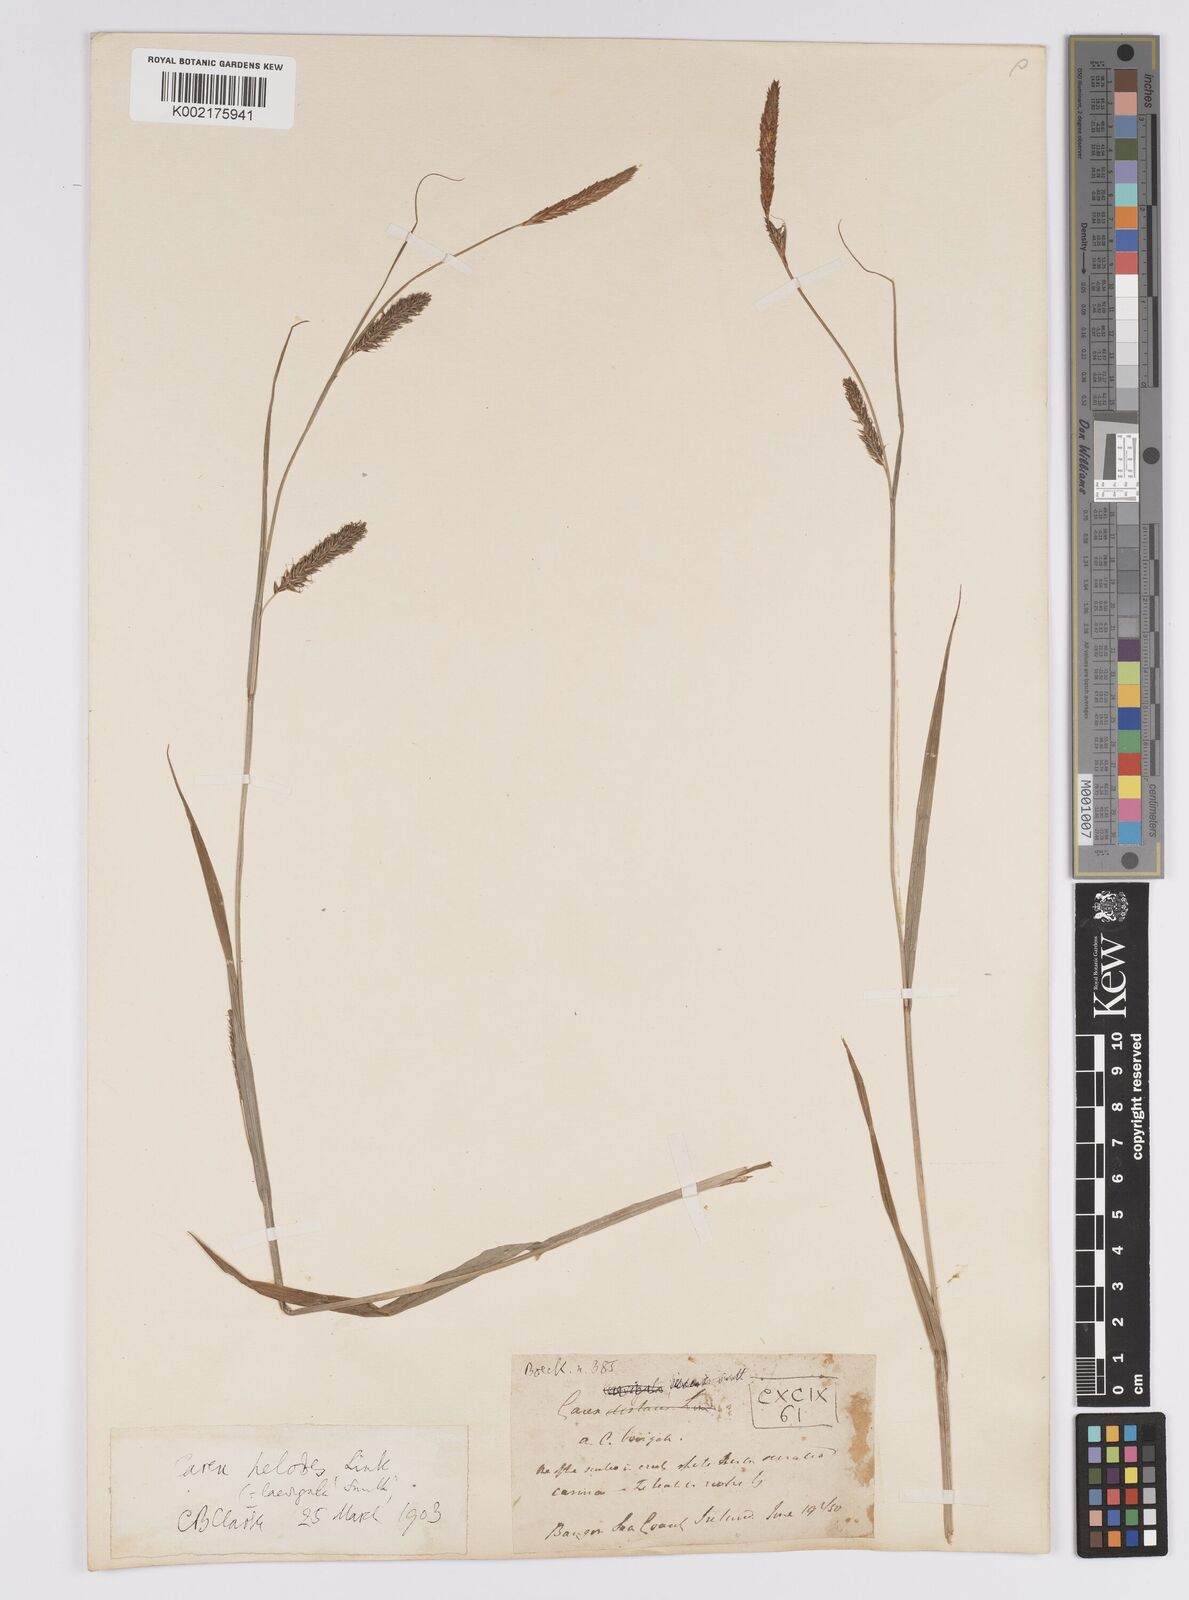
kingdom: Plantae
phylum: Tracheophyta
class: Liliopsida
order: Poales
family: Cyperaceae
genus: Carex
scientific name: Carex laevigata
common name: Smooth-stalked sedge
